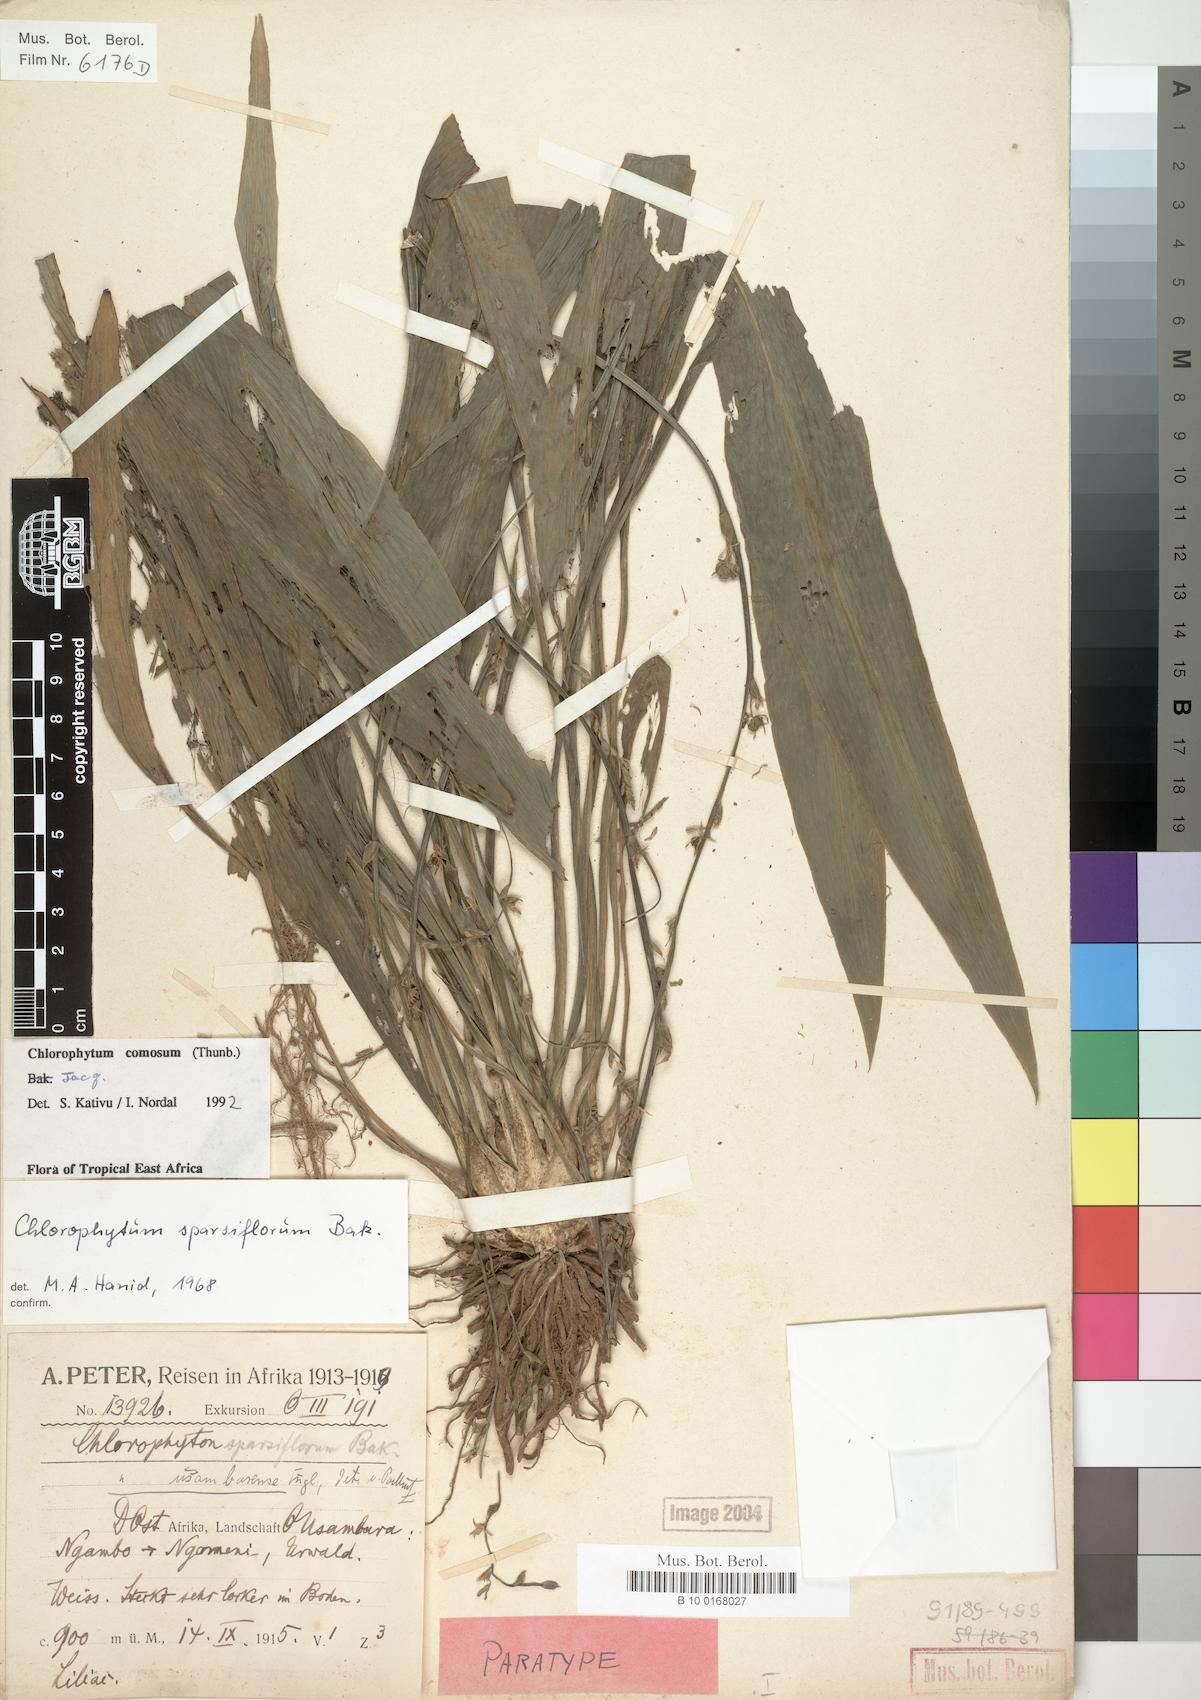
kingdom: Plantae
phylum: Tracheophyta
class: Liliopsida
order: Asparagales
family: Asparagaceae
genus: Chlorophytum
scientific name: Chlorophytum comosum
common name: Spider plant
